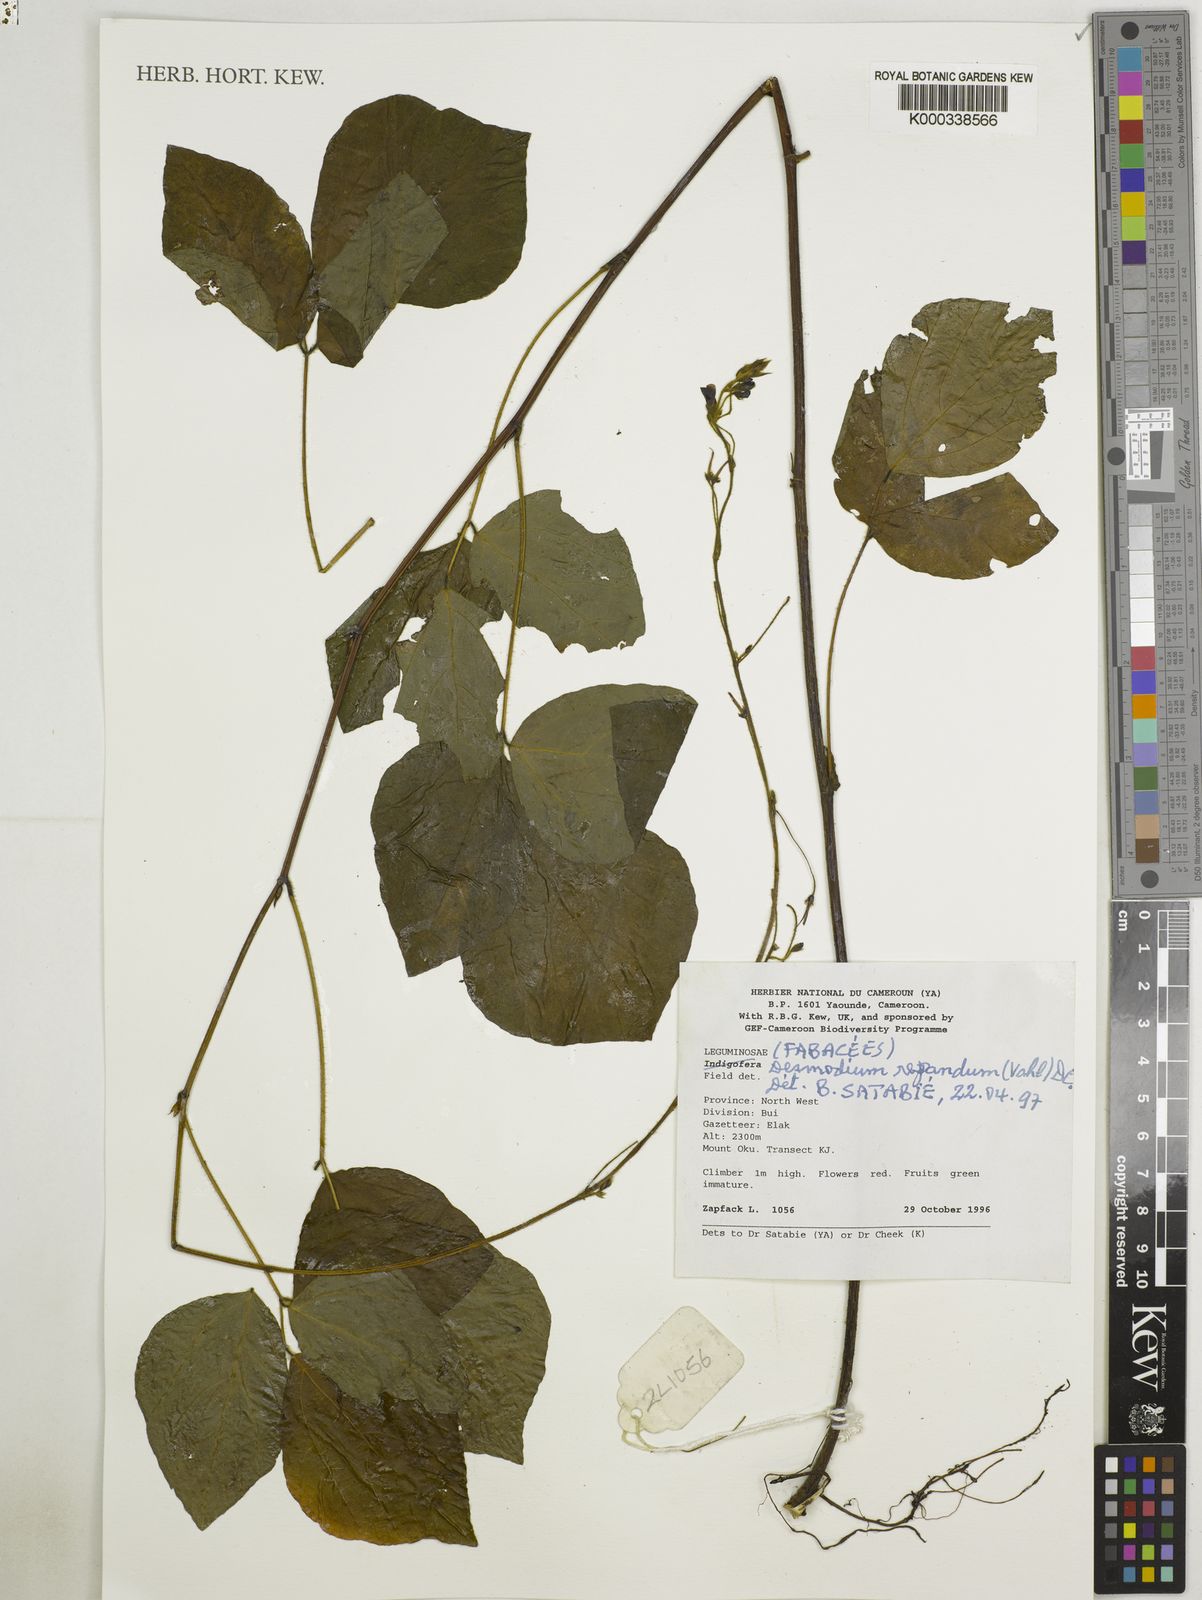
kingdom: Plantae
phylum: Tracheophyta
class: Magnoliopsida
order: Fabales
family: Fabaceae
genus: Desmodium
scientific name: Desmodium
